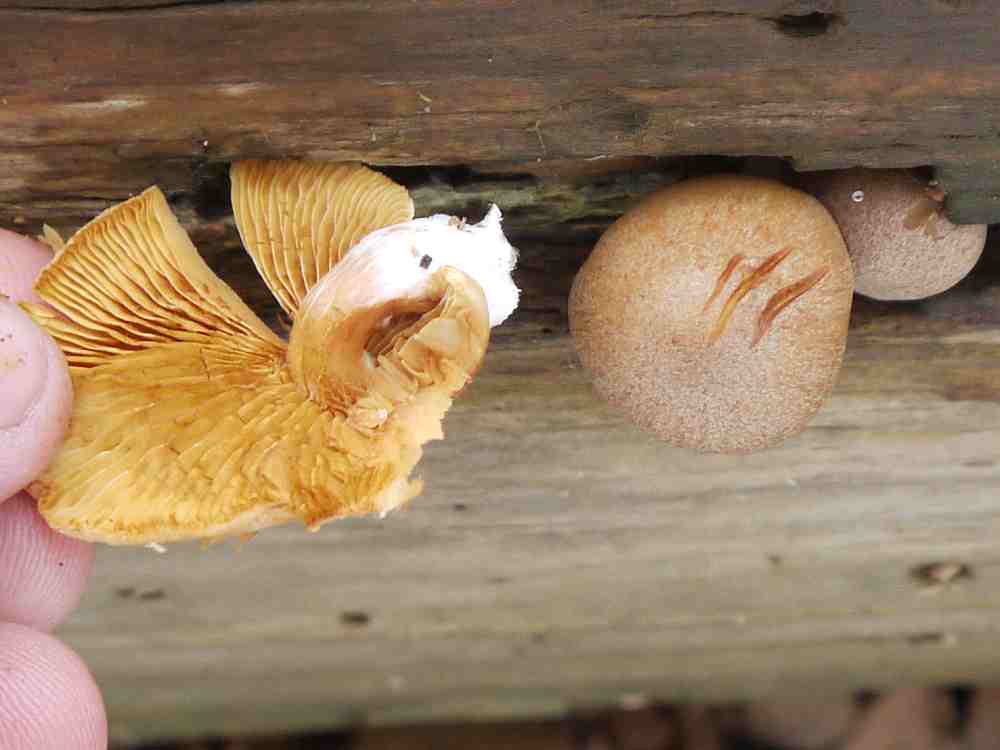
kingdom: Fungi
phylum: Basidiomycota
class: Agaricomycetes
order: Agaricales
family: Hymenogastraceae
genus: Gymnopilus
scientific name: Gymnopilus penetrans
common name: plettet flammehat
